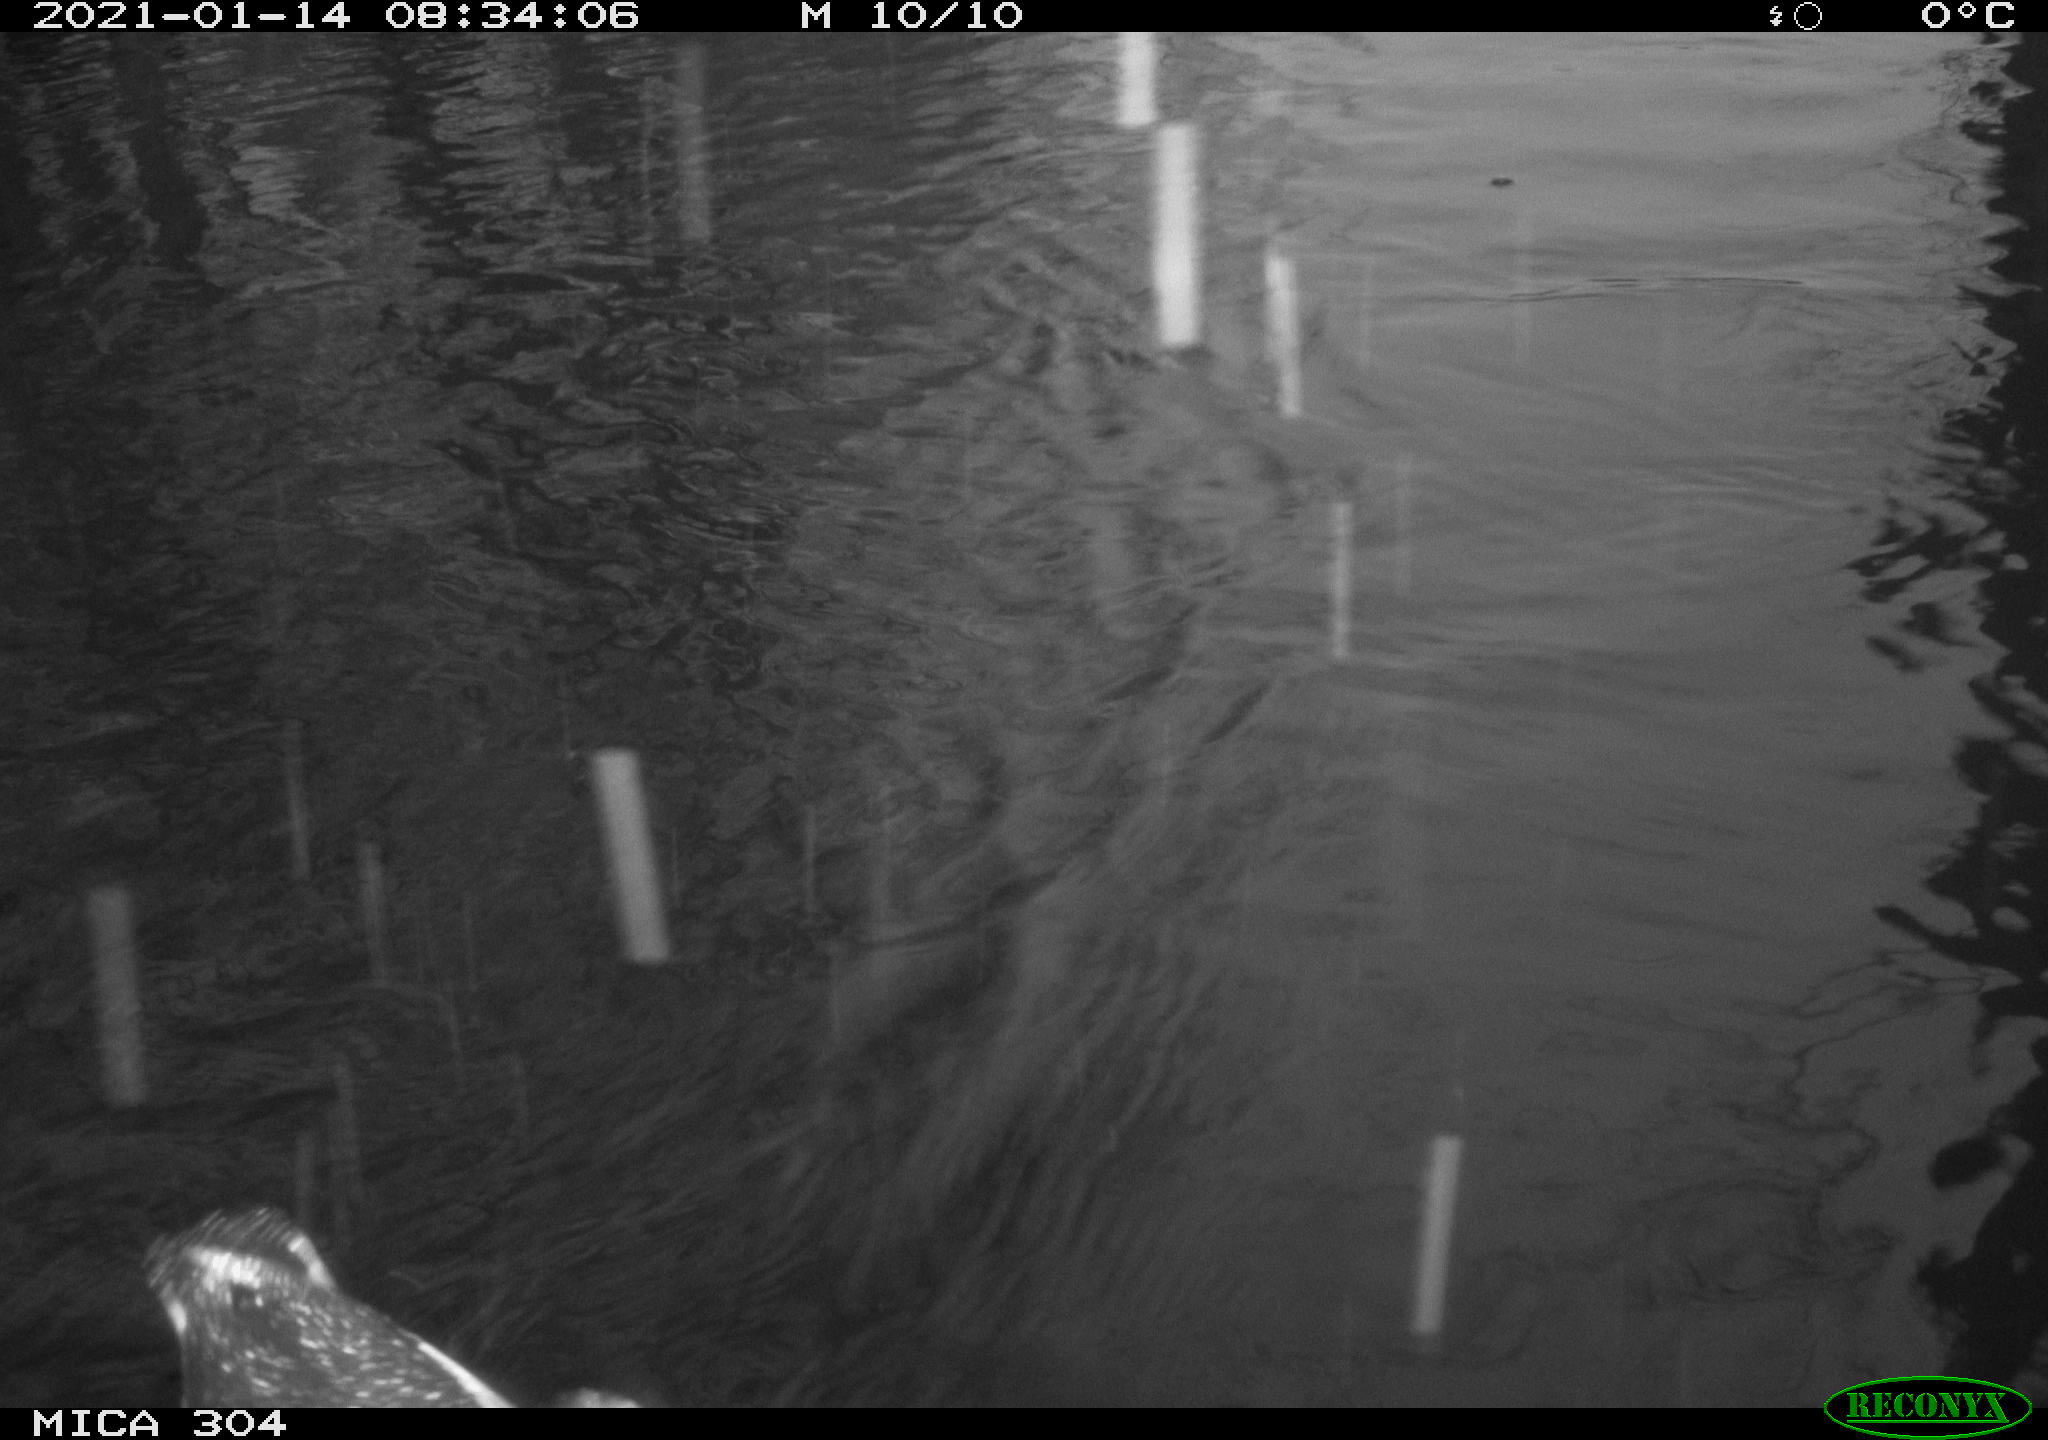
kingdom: Animalia
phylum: Chordata
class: Aves
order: Gruiformes
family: Rallidae
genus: Gallinula
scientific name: Gallinula chloropus
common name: Common moorhen
